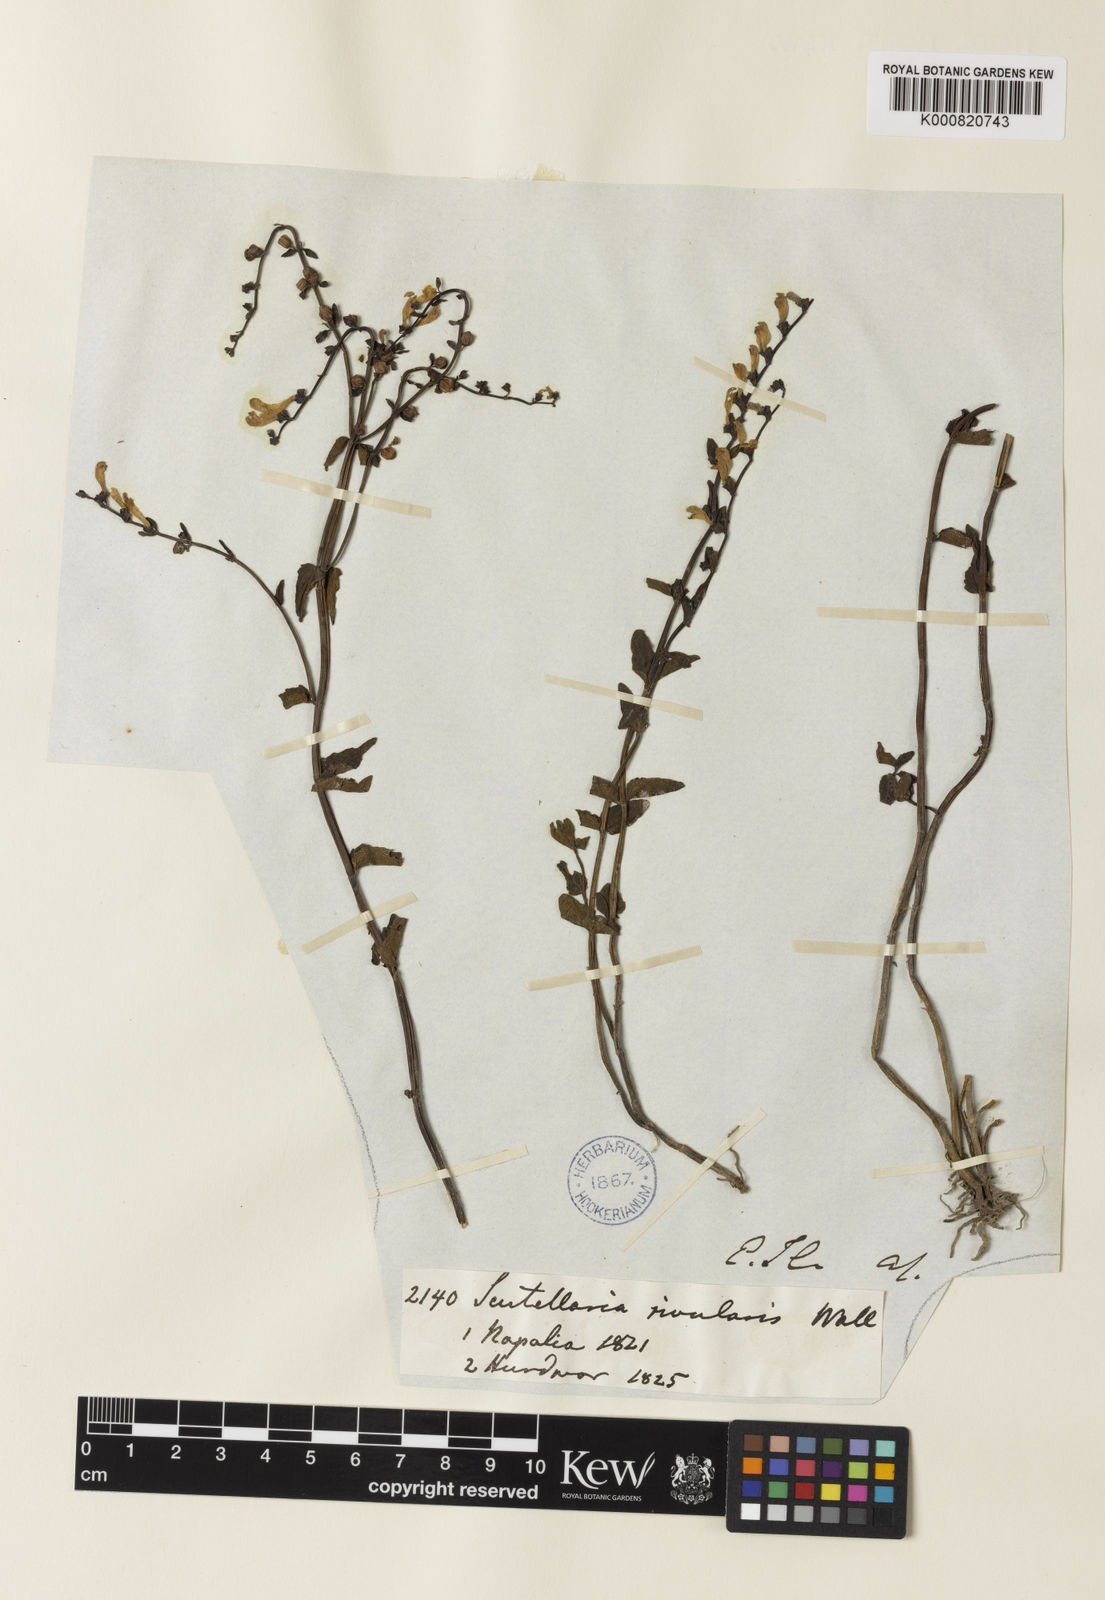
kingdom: Plantae
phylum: Tracheophyta
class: Magnoliopsida
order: Lamiales
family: Lamiaceae
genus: Scutellaria
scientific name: Scutellaria
